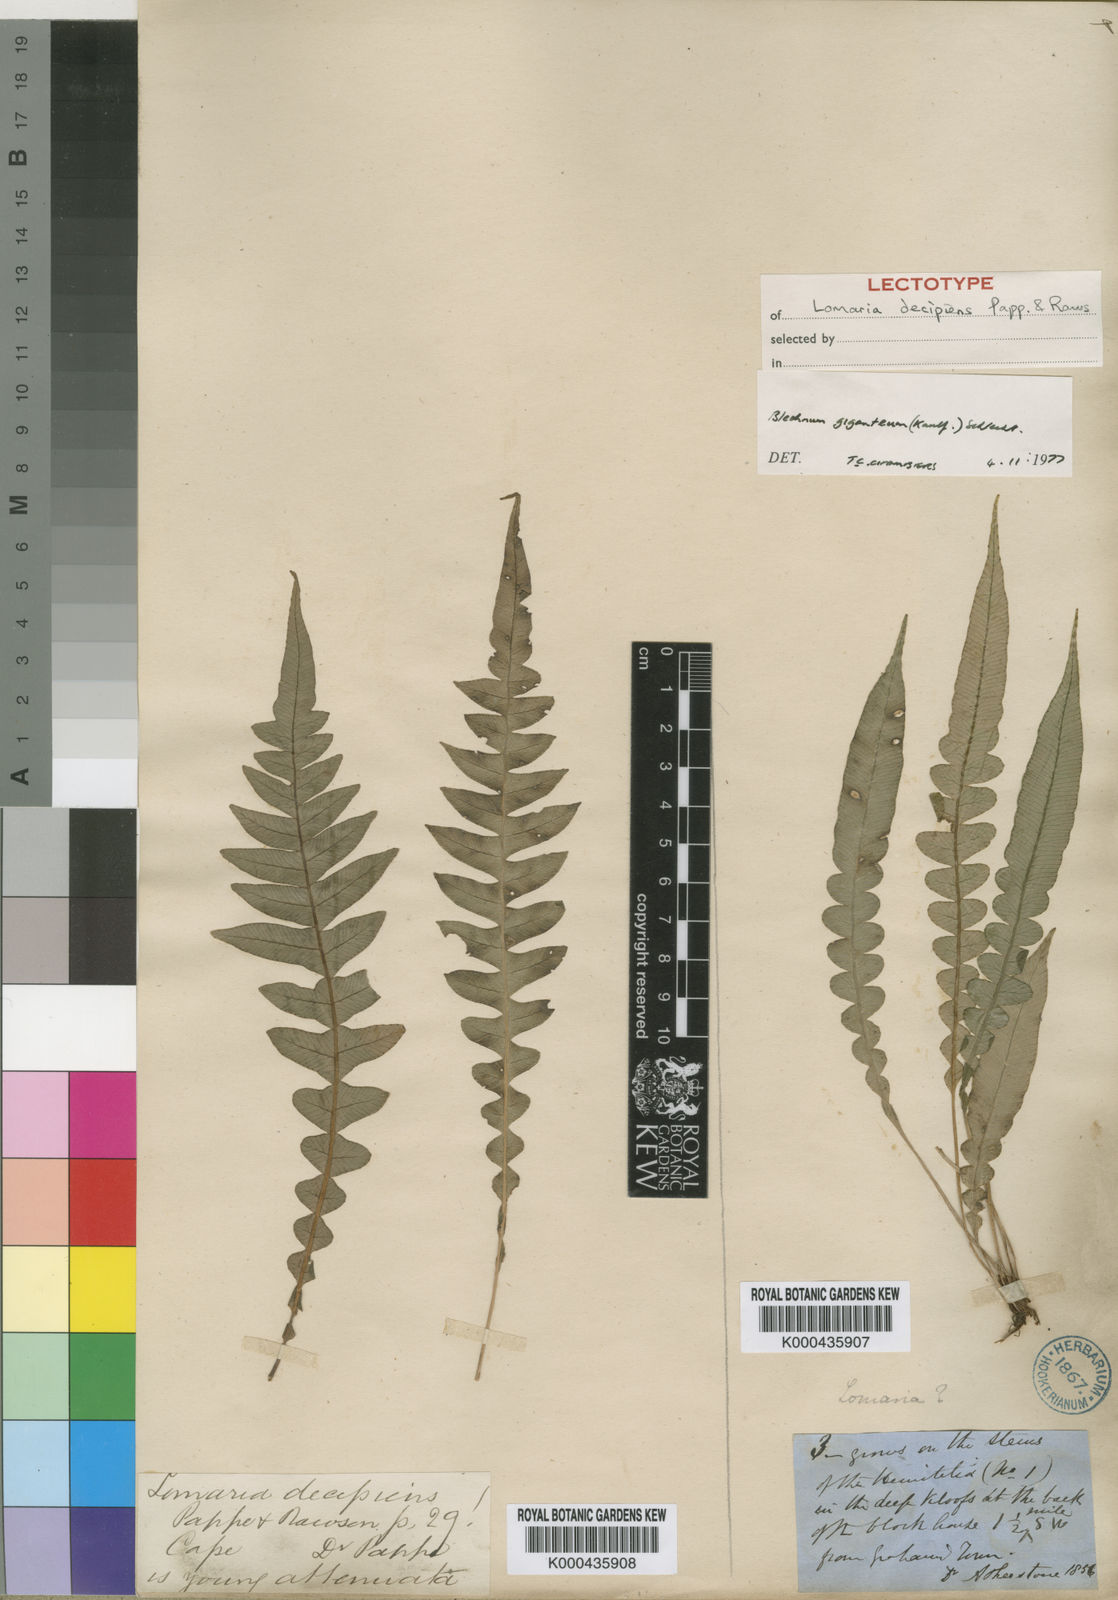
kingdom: Plantae
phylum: Tracheophyta
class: Polypodiopsida
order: Polypodiales
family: Blechnaceae
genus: Lomaridium
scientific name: Lomaridium attenuatum
